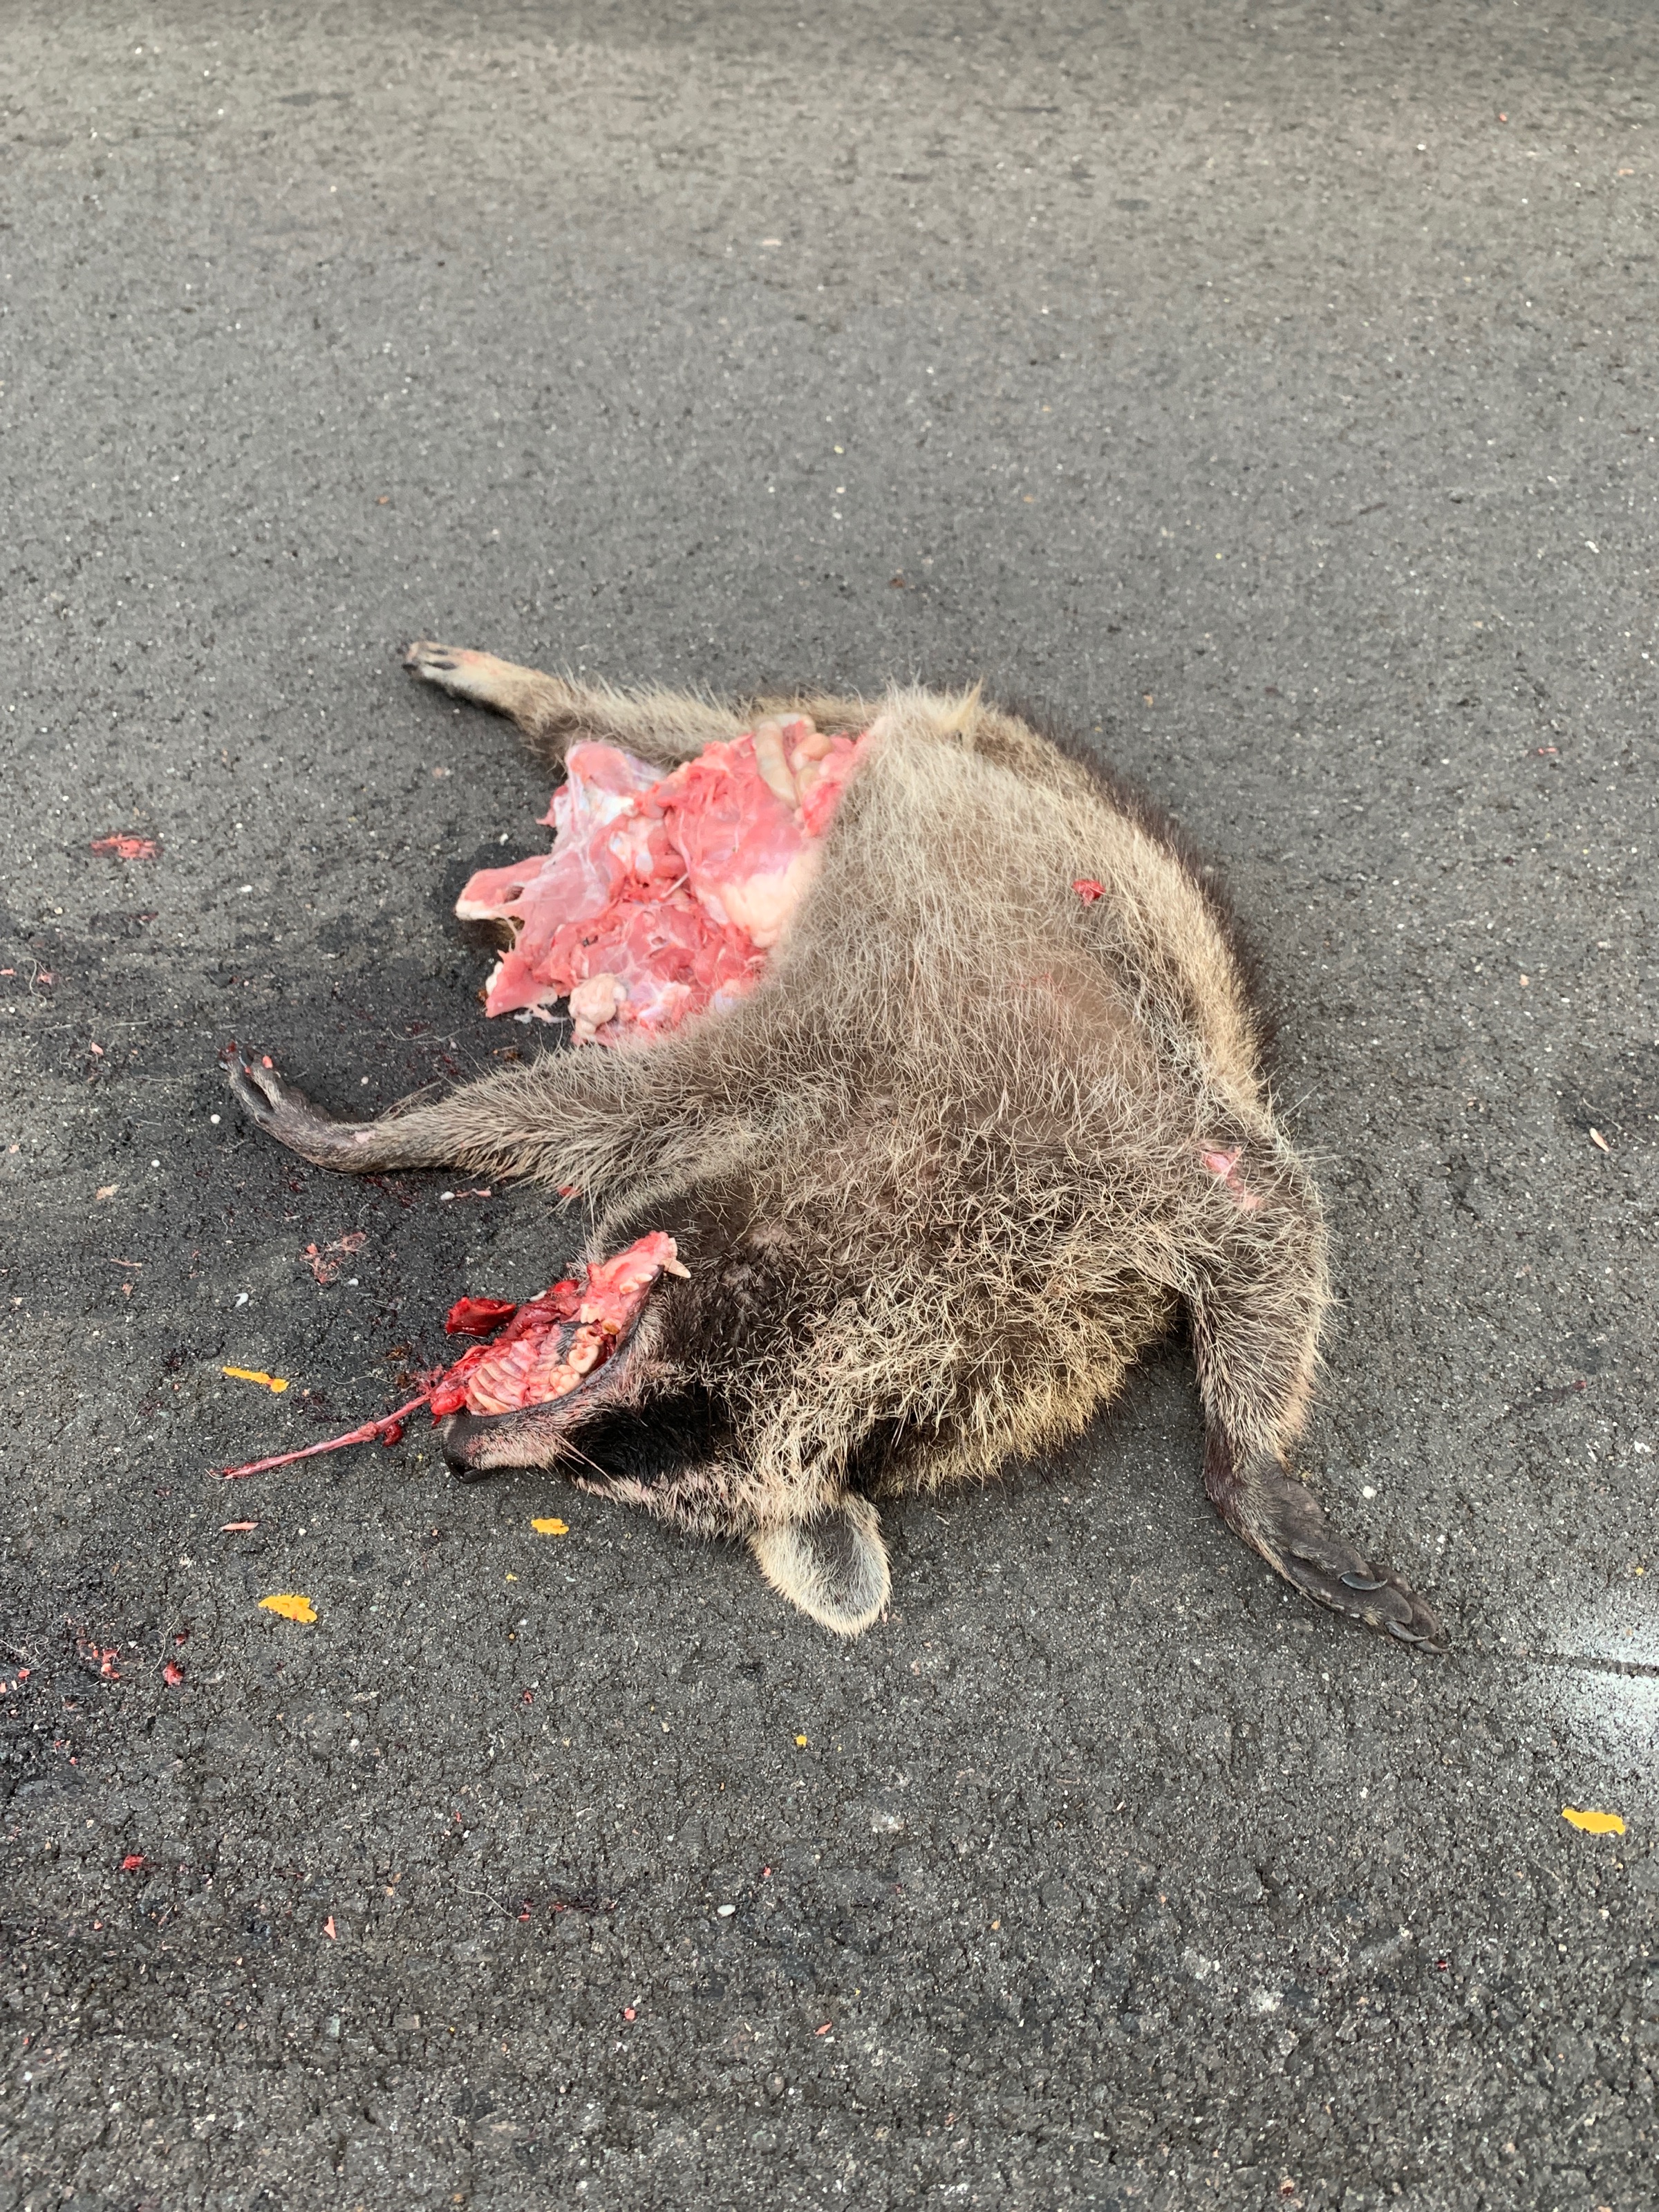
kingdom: Animalia
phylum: Chordata
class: Mammalia
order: Carnivora
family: Procyonidae
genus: Procyon
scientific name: Procyon lotor
